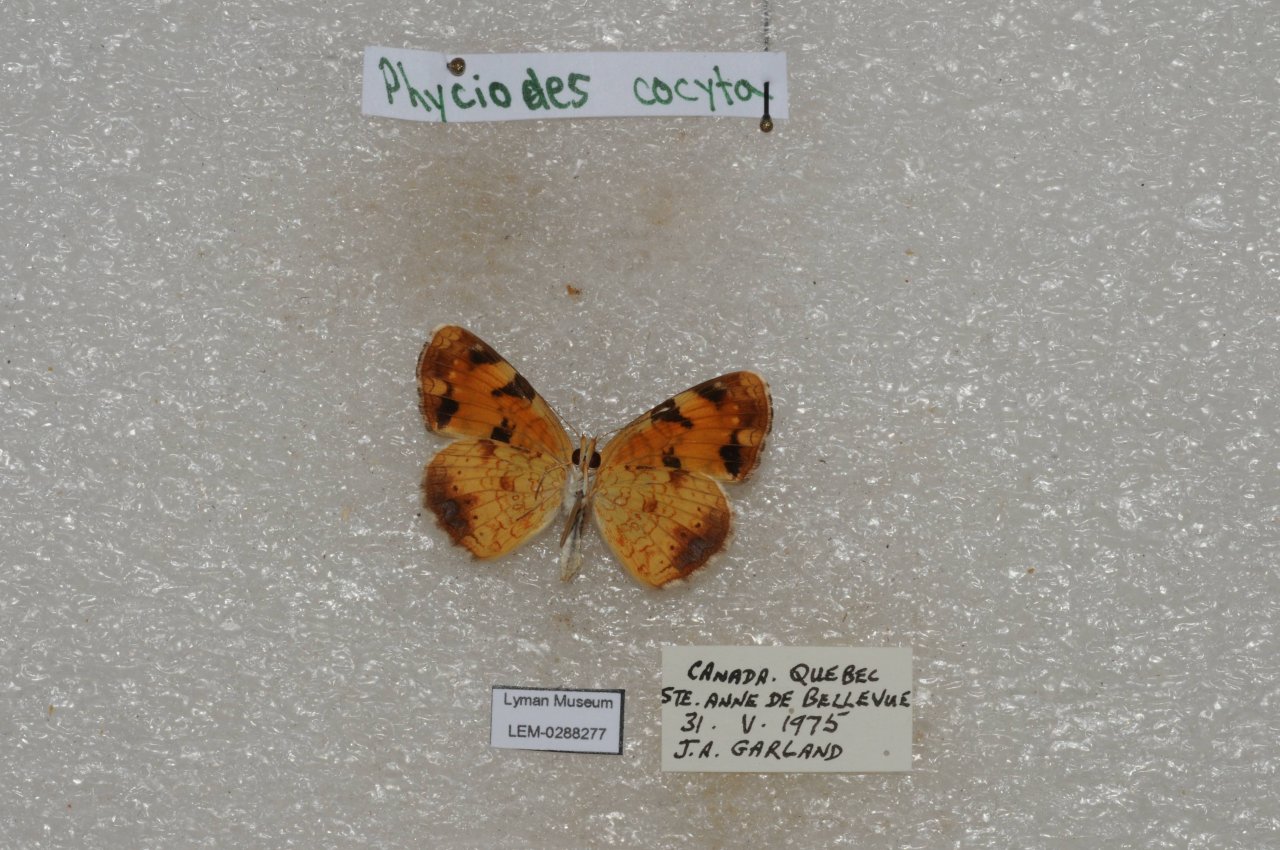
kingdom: Animalia
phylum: Arthropoda
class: Insecta
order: Lepidoptera
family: Nymphalidae
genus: Phyciodes
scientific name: Phyciodes tharos
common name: Northern Crescent
